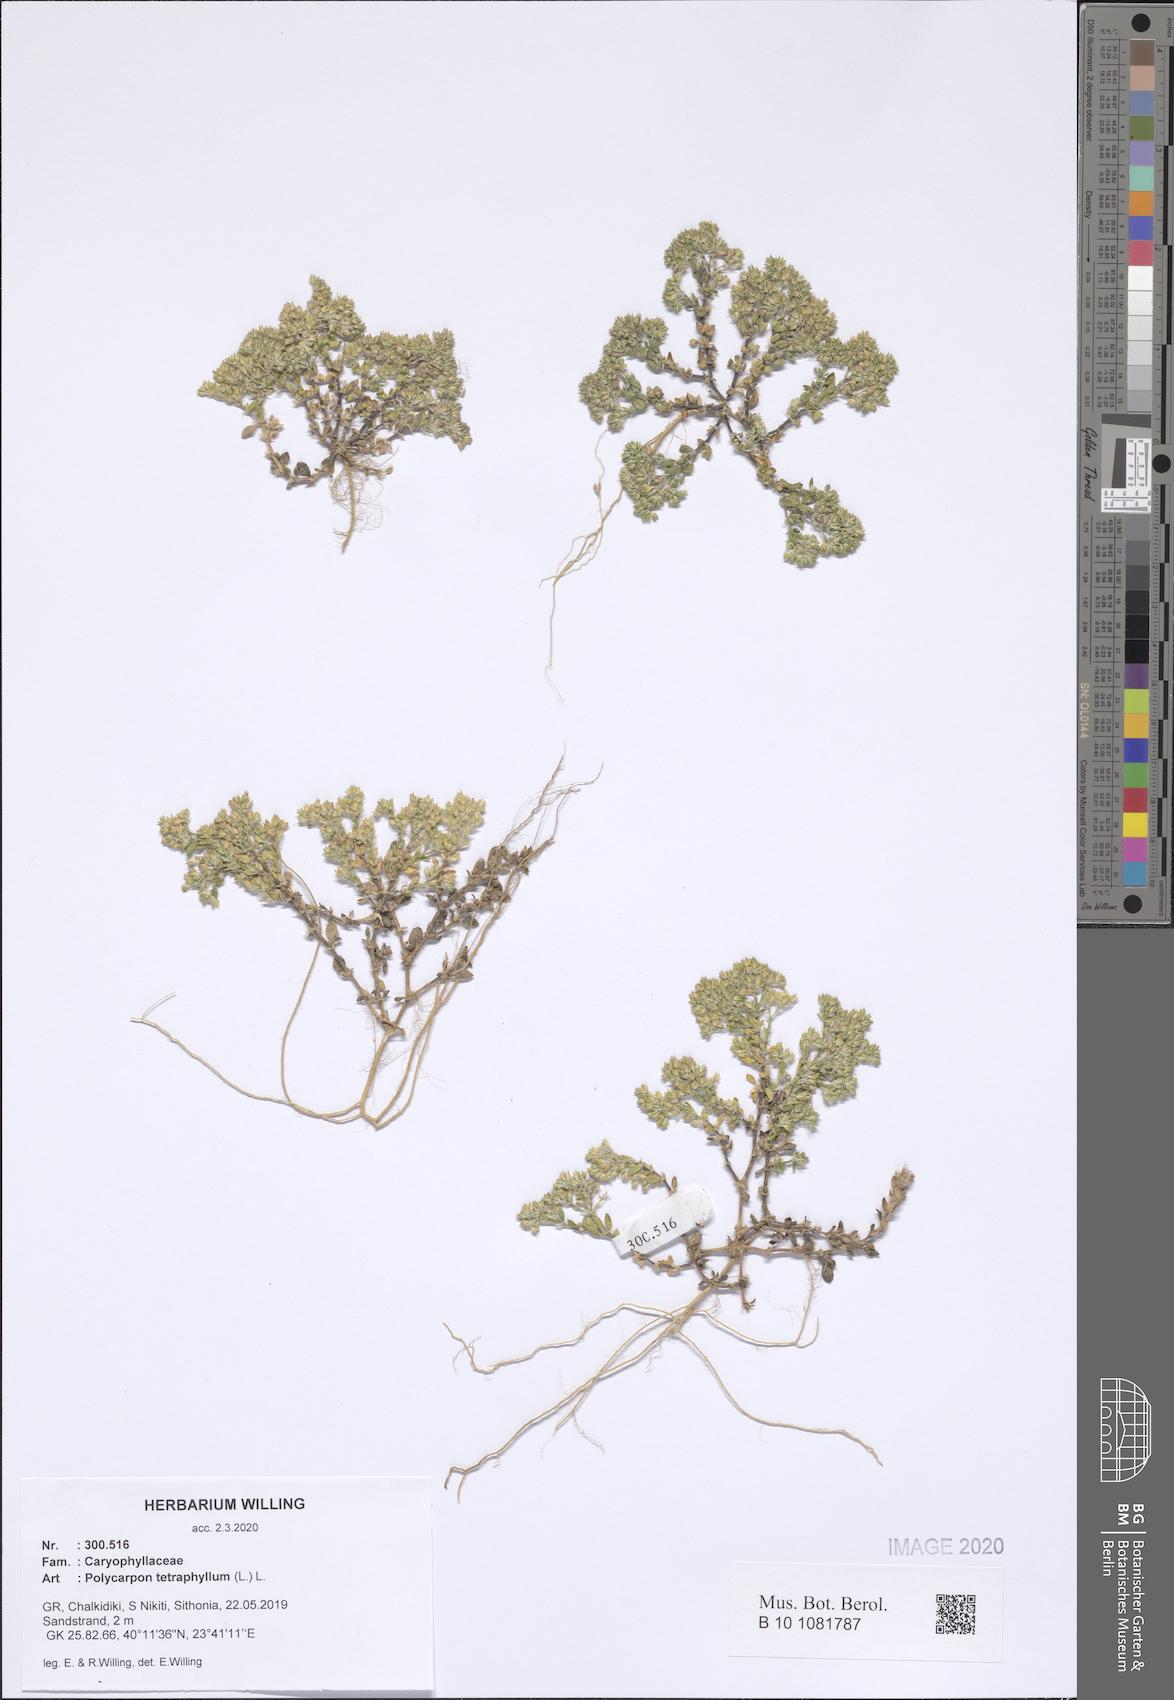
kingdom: Plantae
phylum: Tracheophyta
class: Magnoliopsida
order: Caryophyllales
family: Caryophyllaceae
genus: Polycarpon
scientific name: Polycarpon tetraphyllum
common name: Four-leaved all-seed
